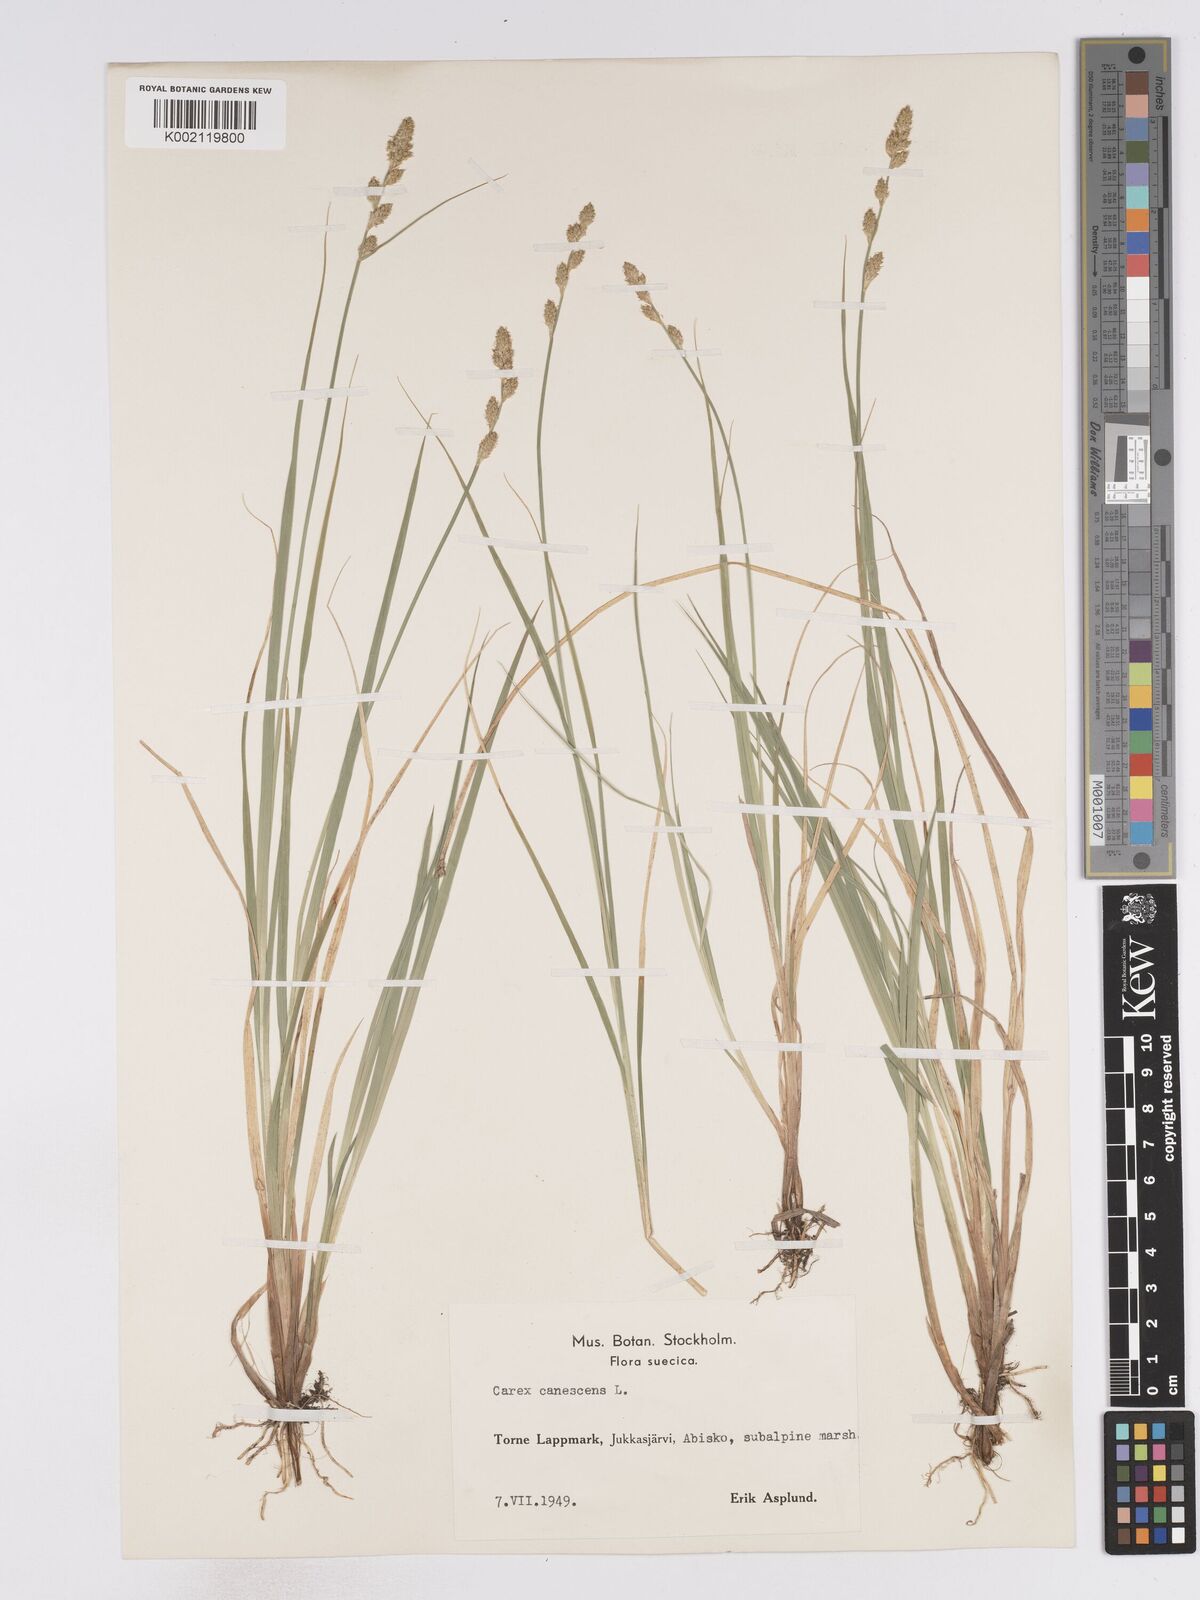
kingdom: Plantae
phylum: Tracheophyta
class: Liliopsida
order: Poales
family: Cyperaceae
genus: Carex
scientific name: Carex curta
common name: White sedge
